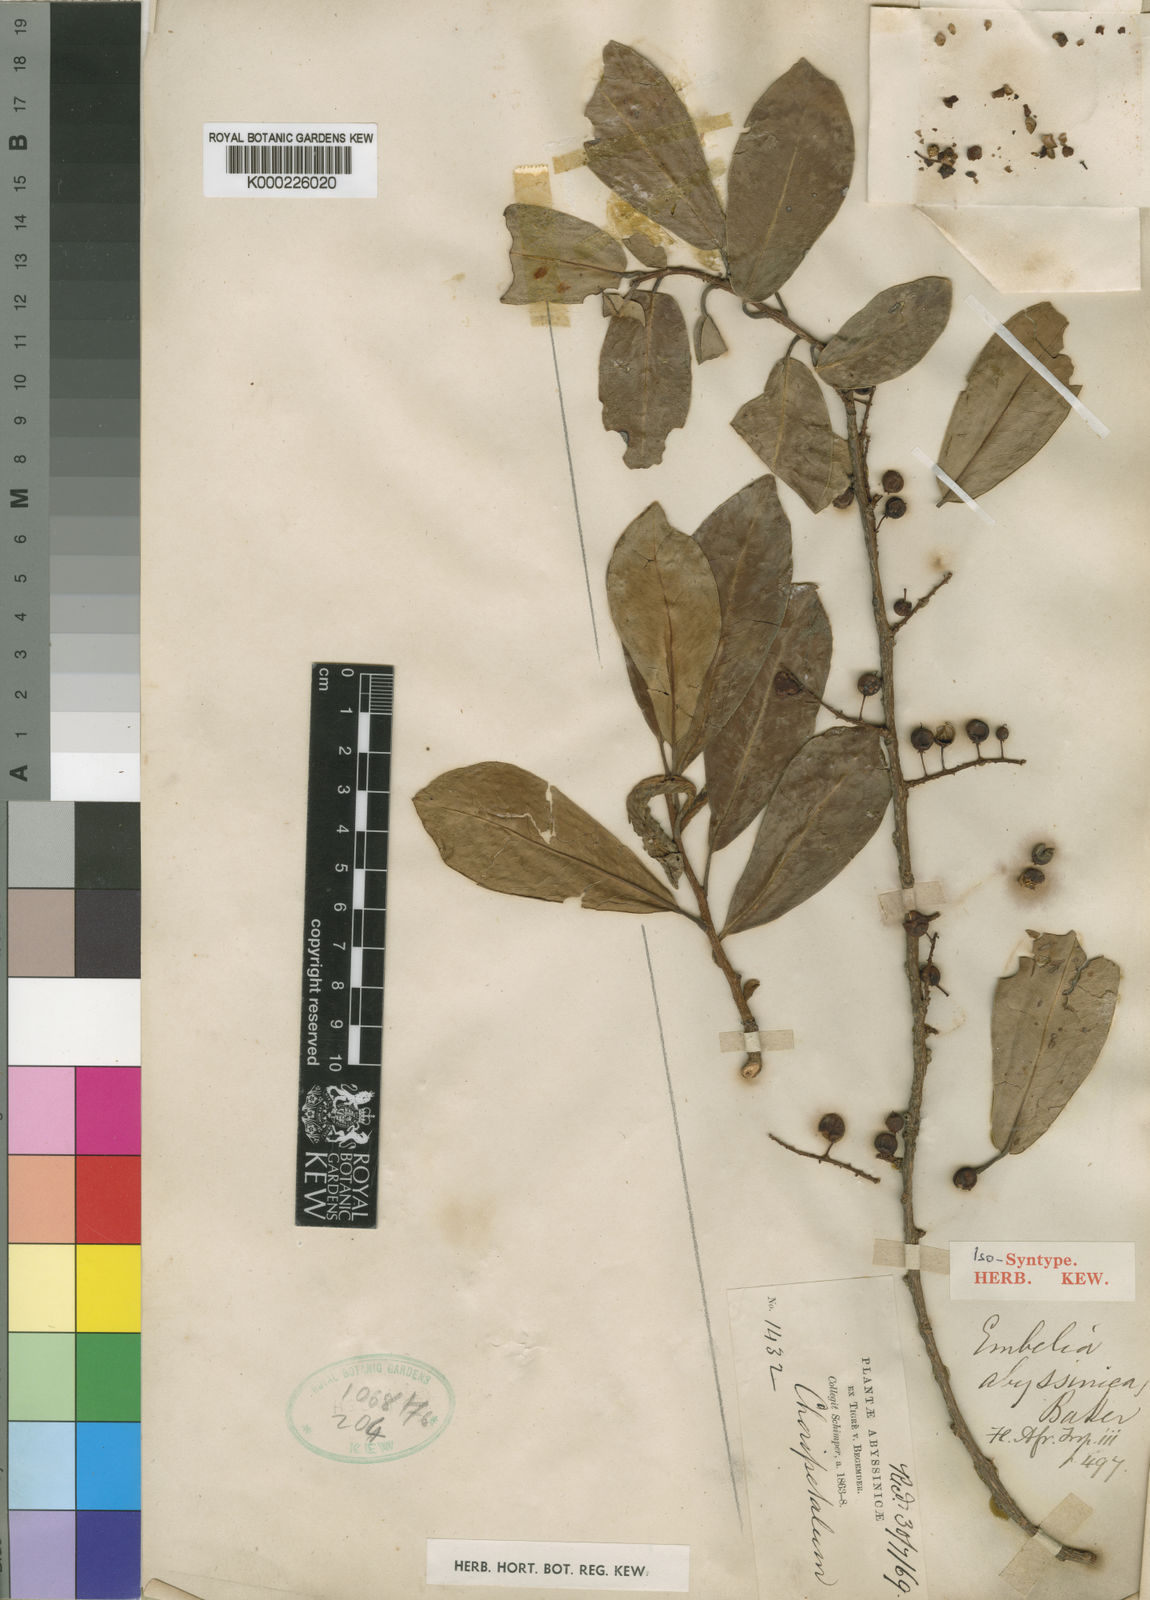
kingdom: Plantae
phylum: Tracheophyta
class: Magnoliopsida
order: Ericales
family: Primulaceae
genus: Embelia
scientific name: Embelia schimperi
